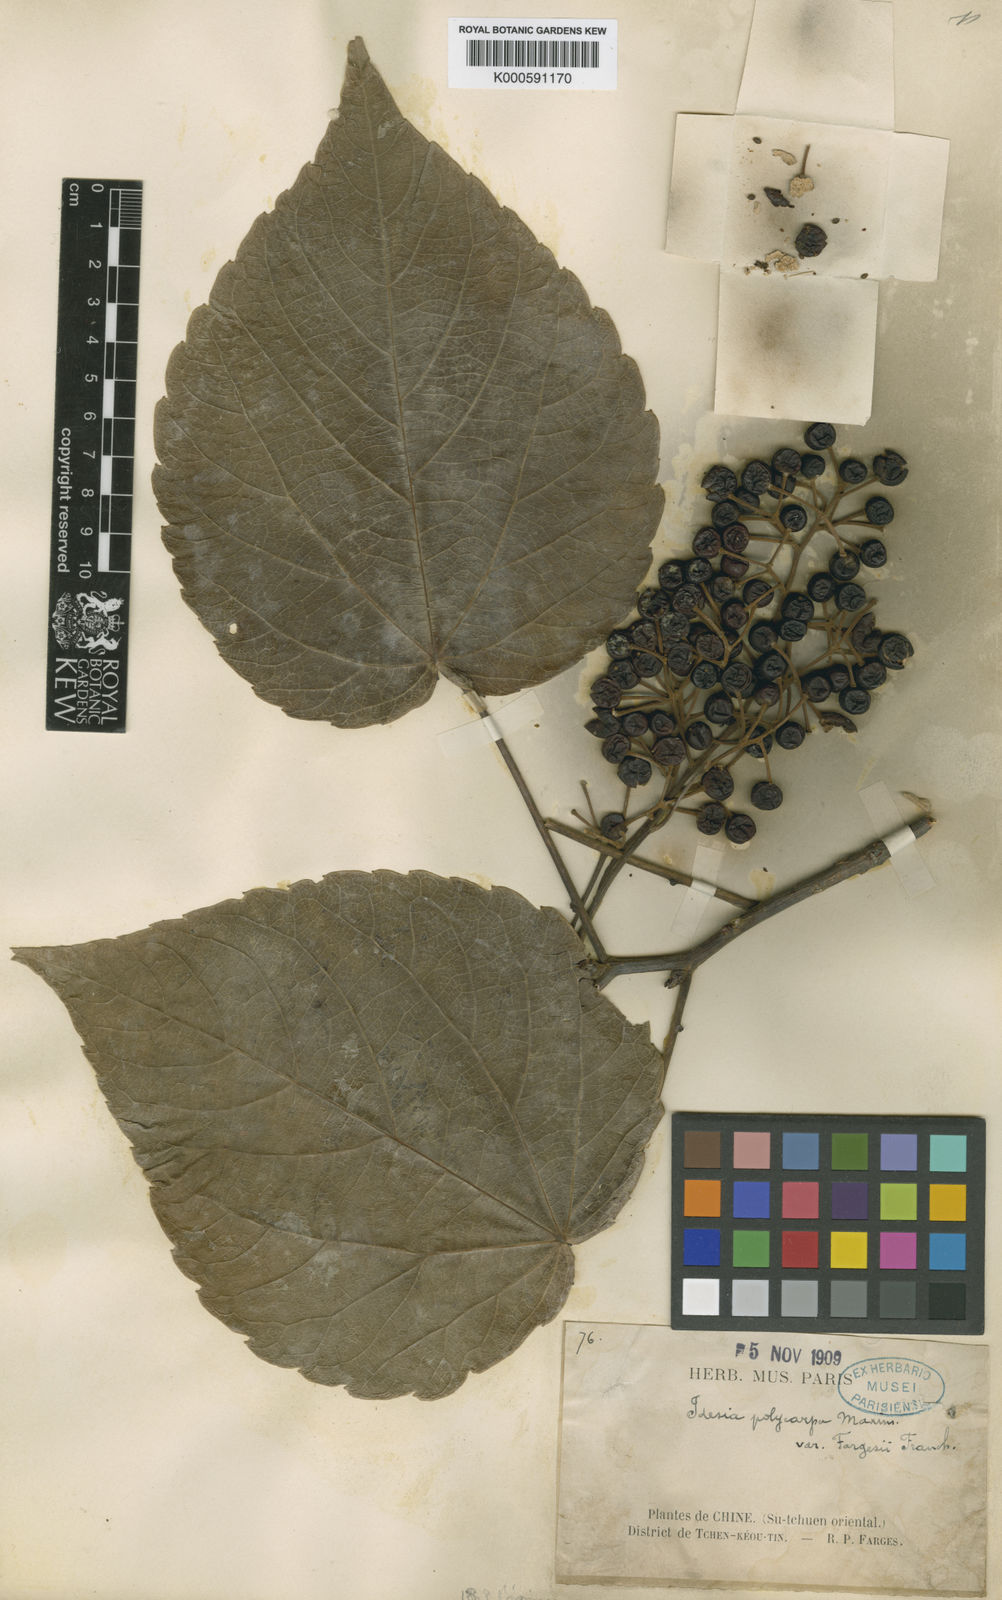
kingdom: Plantae
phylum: Tracheophyta
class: Magnoliopsida
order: Malpighiales
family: Salicaceae
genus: Idesia
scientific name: Idesia polycarpa
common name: Idesia tree
